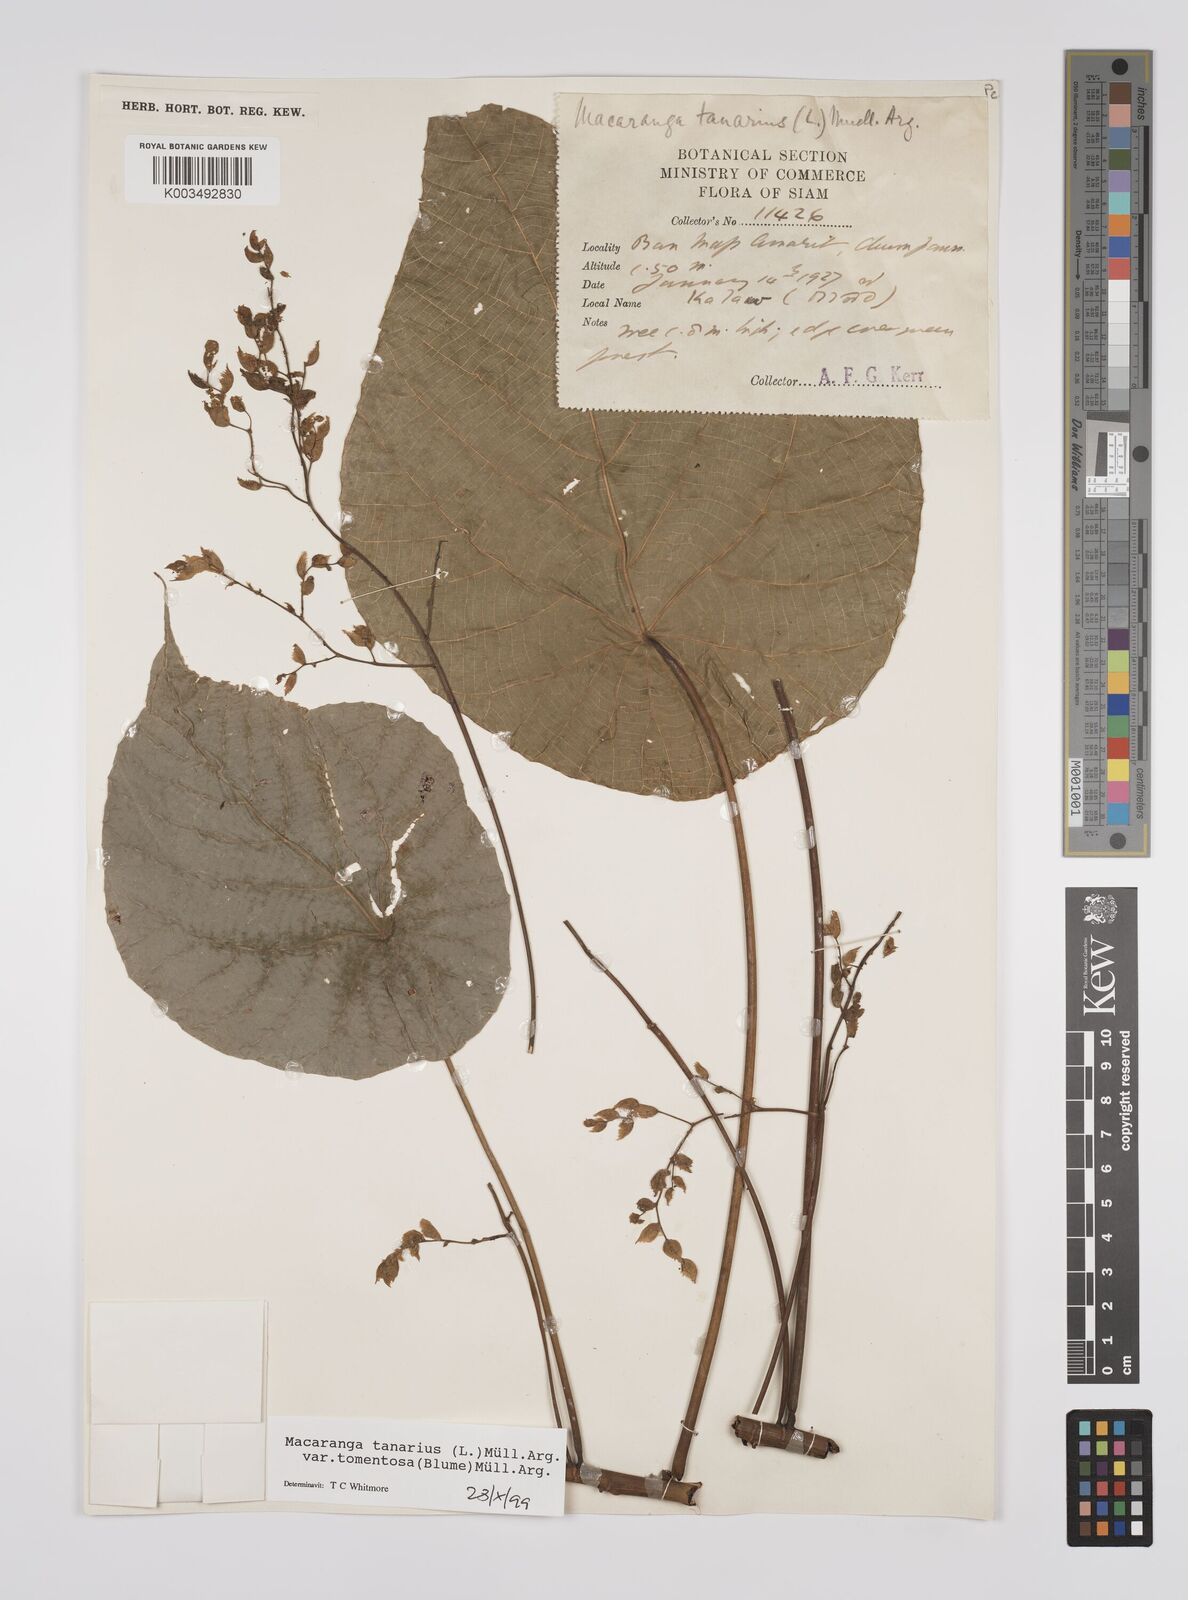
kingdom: Plantae
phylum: Tracheophyta
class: Magnoliopsida
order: Malpighiales
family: Euphorbiaceae
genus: Macaranga
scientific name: Macaranga tanarius
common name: Parasol leaf tree
